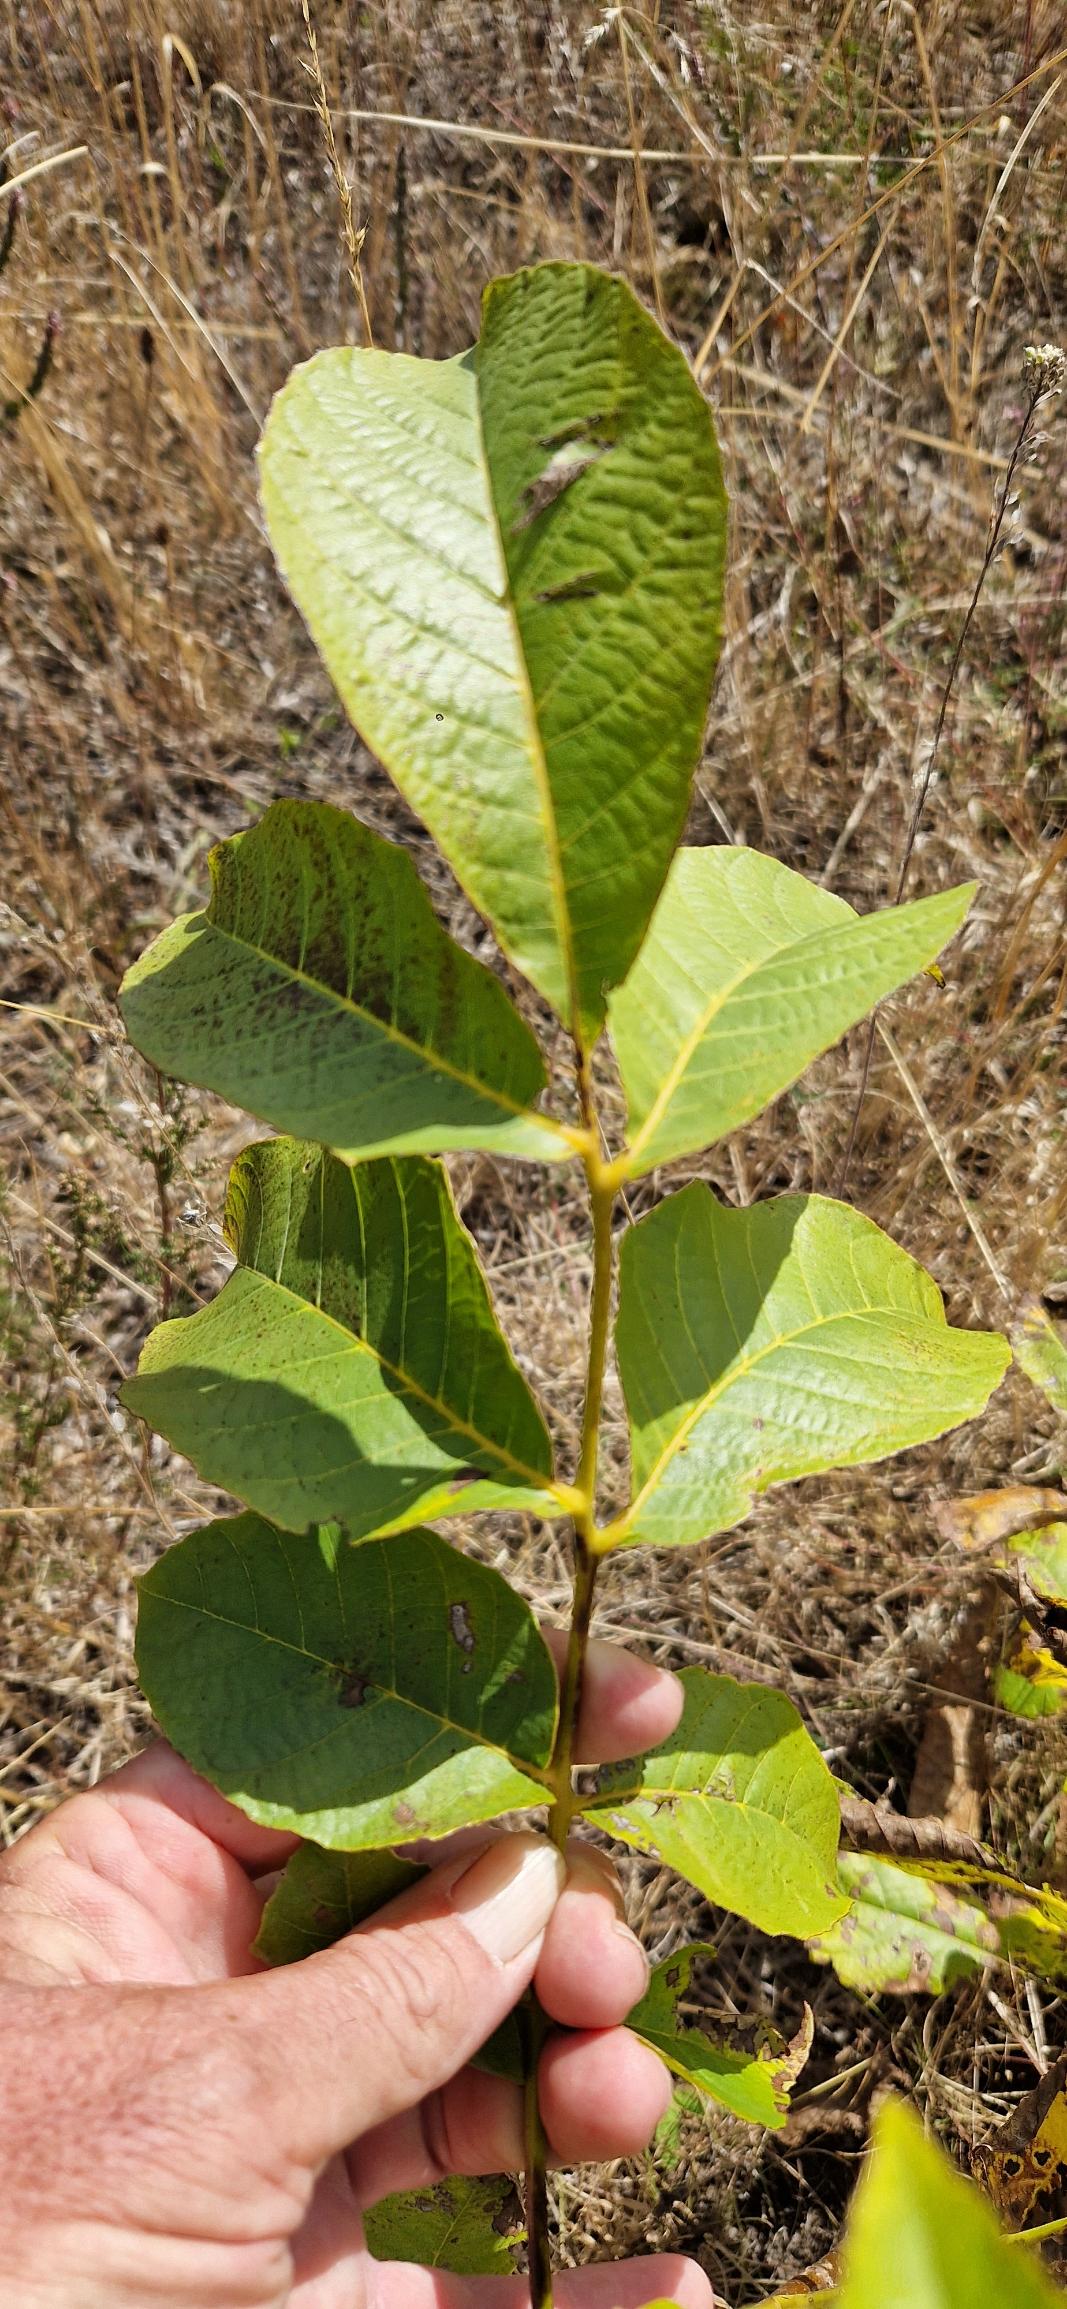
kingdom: Plantae
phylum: Tracheophyta
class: Magnoliopsida
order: Fagales
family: Juglandaceae
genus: Juglans
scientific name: Juglans regia
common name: Almindelig valnød
